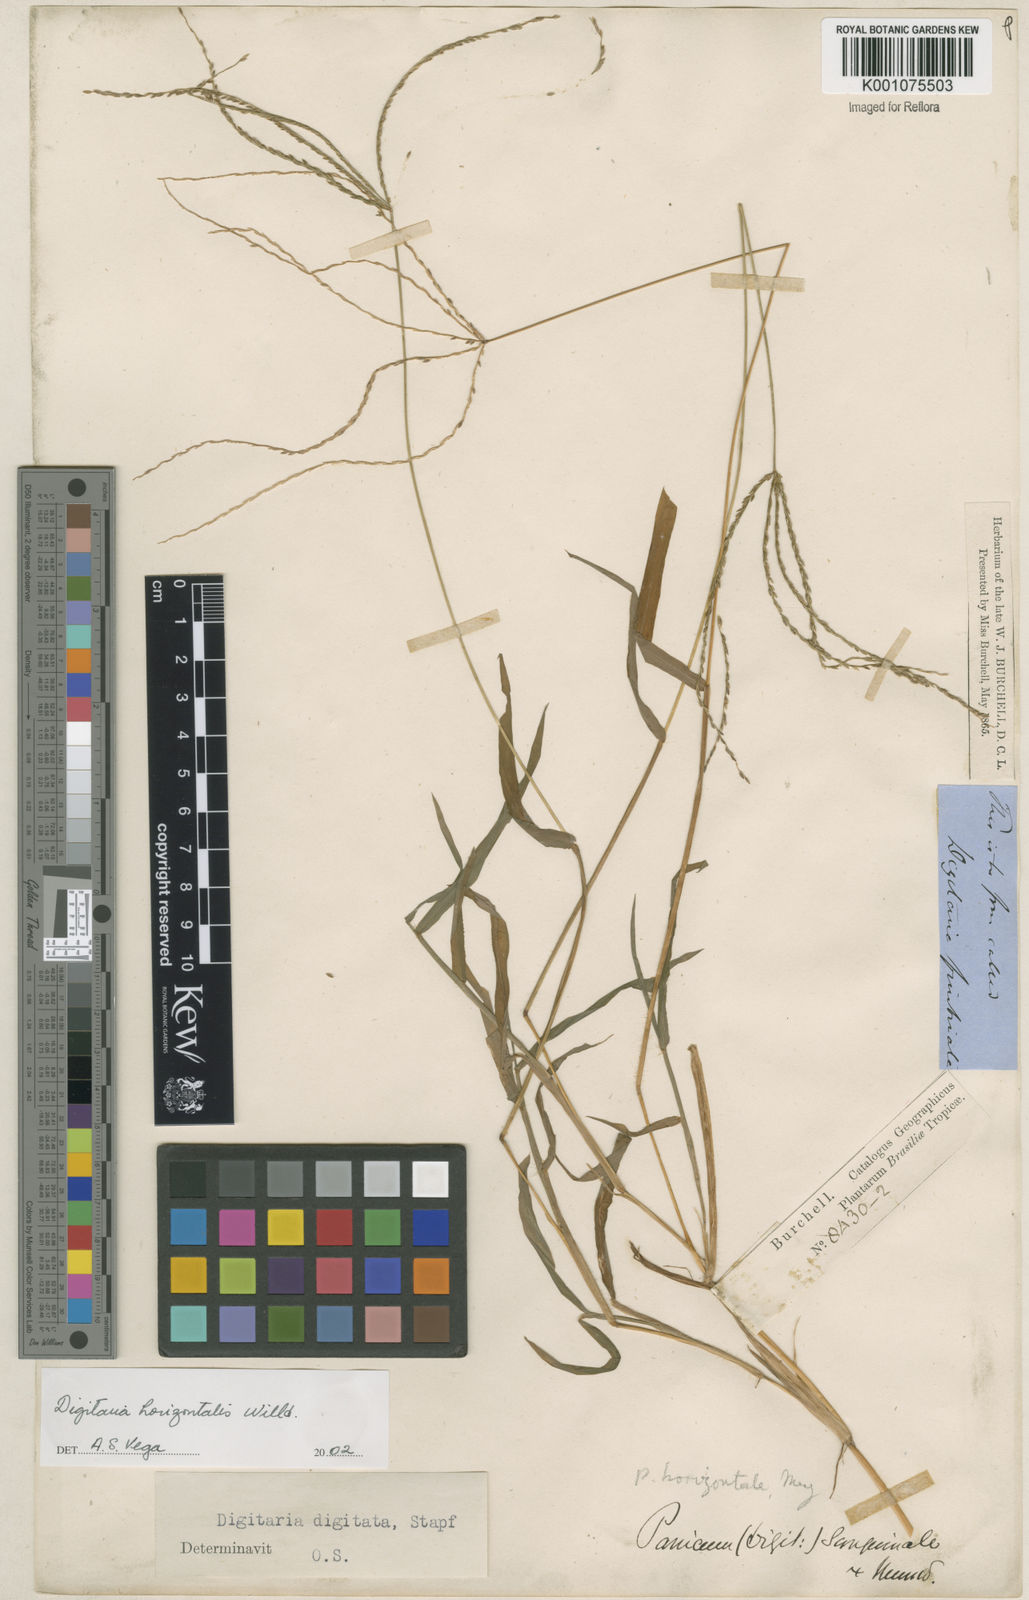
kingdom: Plantae
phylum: Tracheophyta
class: Liliopsida
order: Poales
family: Poaceae
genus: Digitaria
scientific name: Digitaria horizontalis
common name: Jamaican crabgrass
